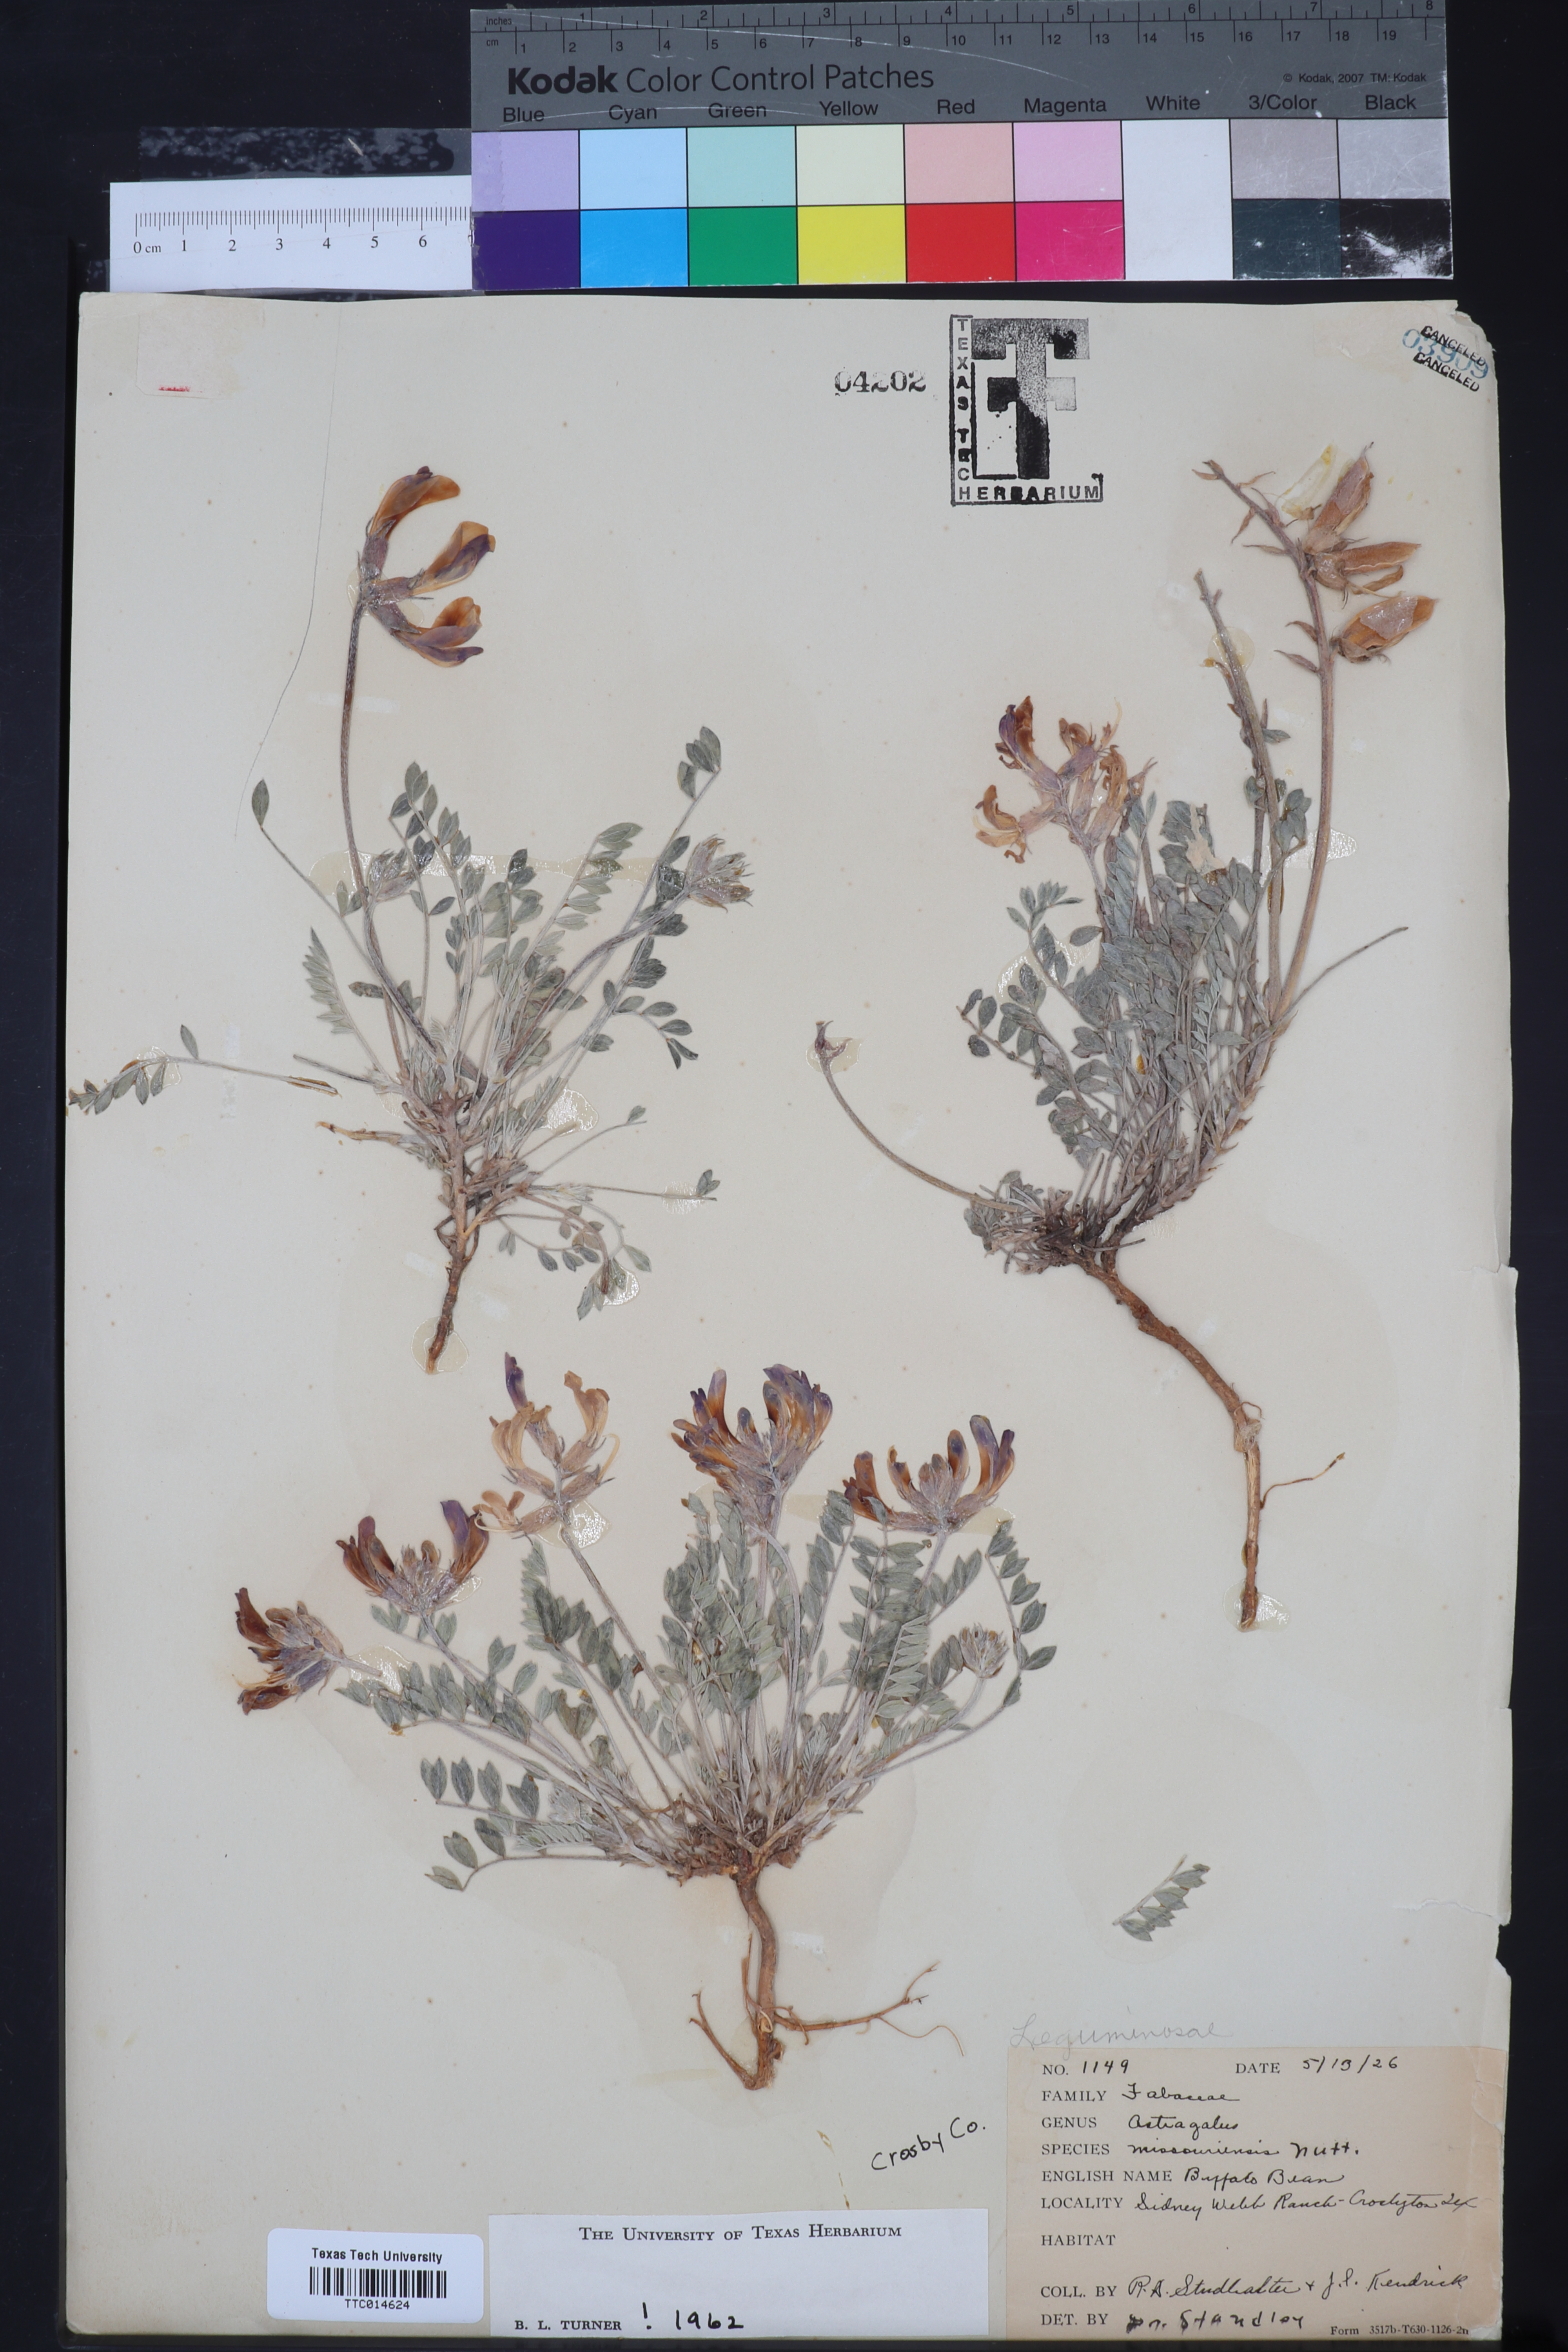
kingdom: Plantae
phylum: Tracheophyta
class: Magnoliopsida
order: Fabales
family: Fabaceae
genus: Astragalus
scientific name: Astragalus missouriensis
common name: Missouri milk-vetch
